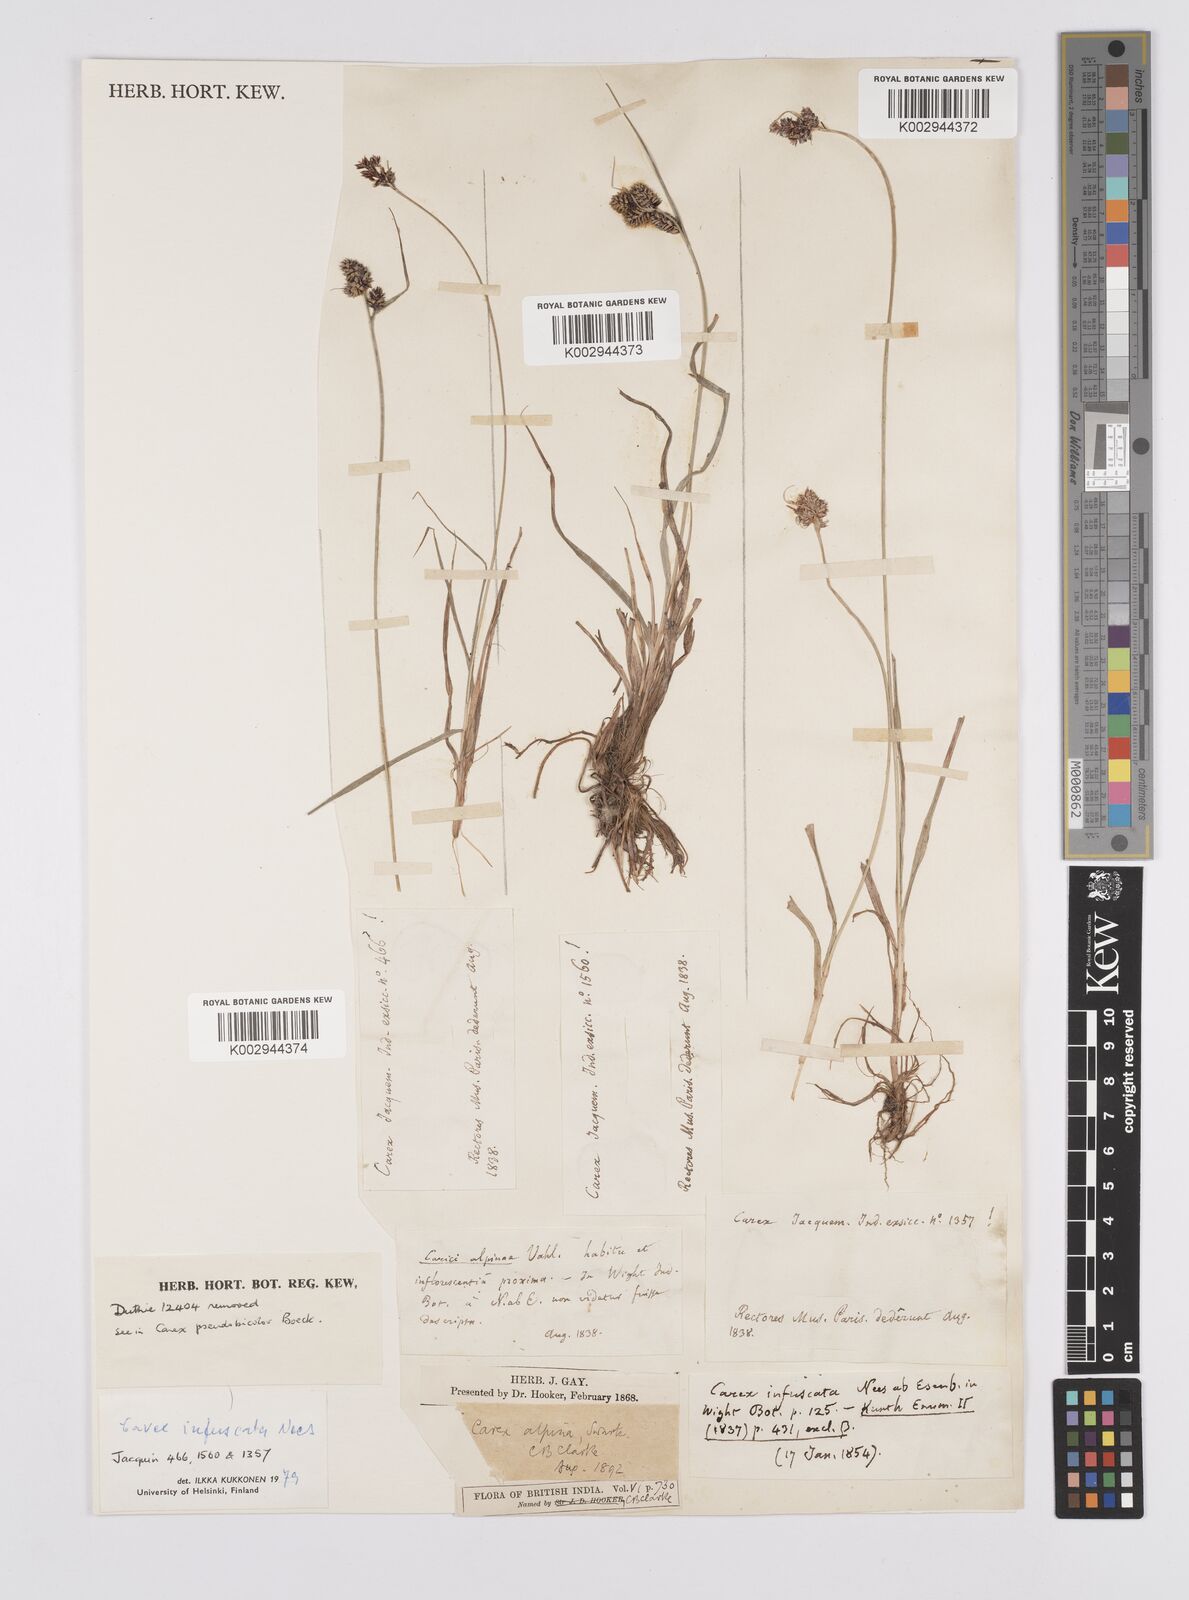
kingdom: Plantae
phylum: Tracheophyta
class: Liliopsida
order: Poales
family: Cyperaceae
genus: Carex
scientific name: Carex norvegica
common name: Close-headed alpine-sedge
